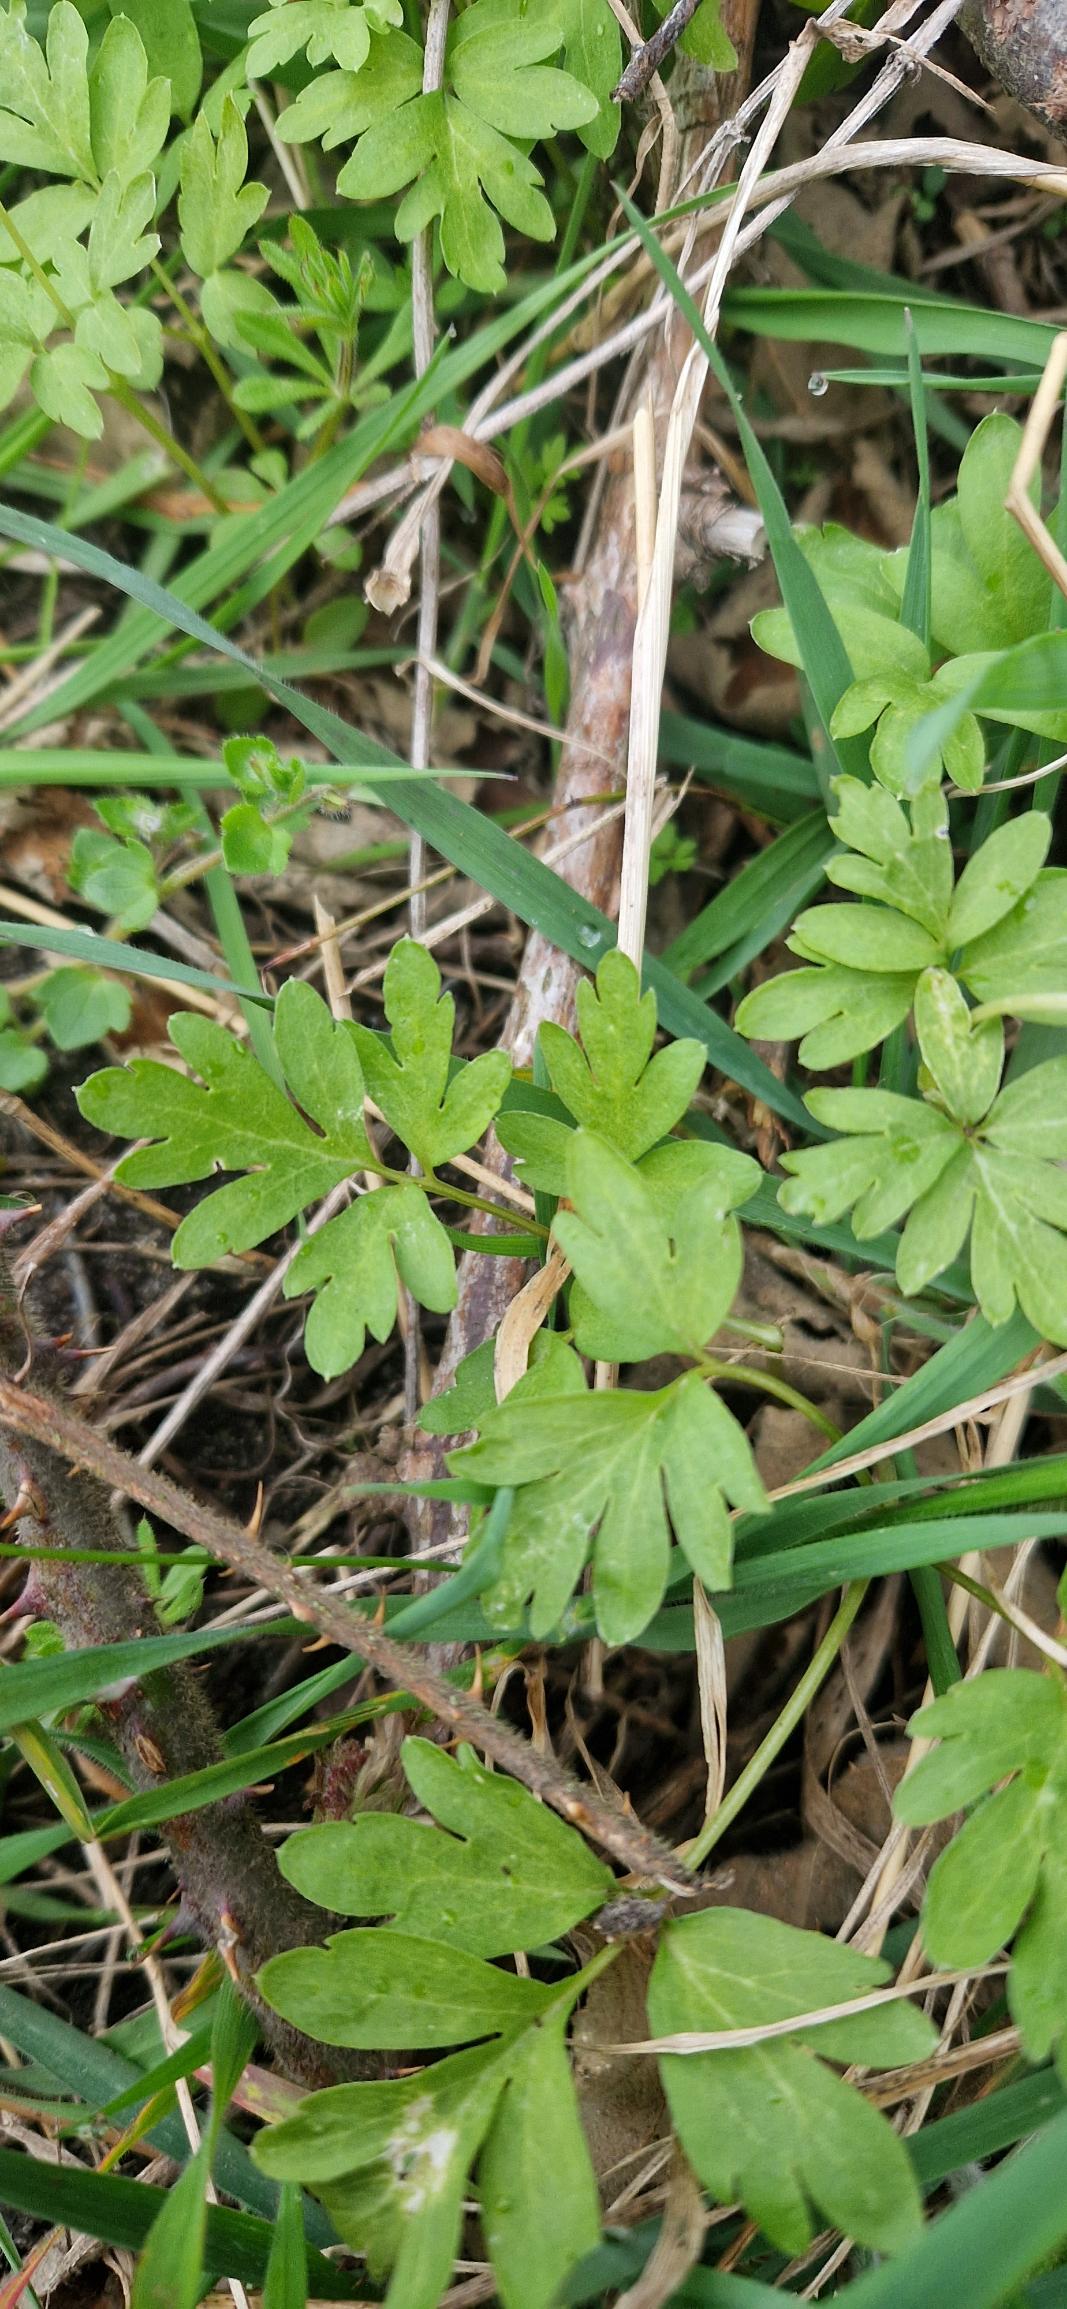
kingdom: Plantae
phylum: Tracheophyta
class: Magnoliopsida
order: Dipsacales
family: Viburnaceae
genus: Adoxa
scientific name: Adoxa moschatellina
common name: Desmerurt
